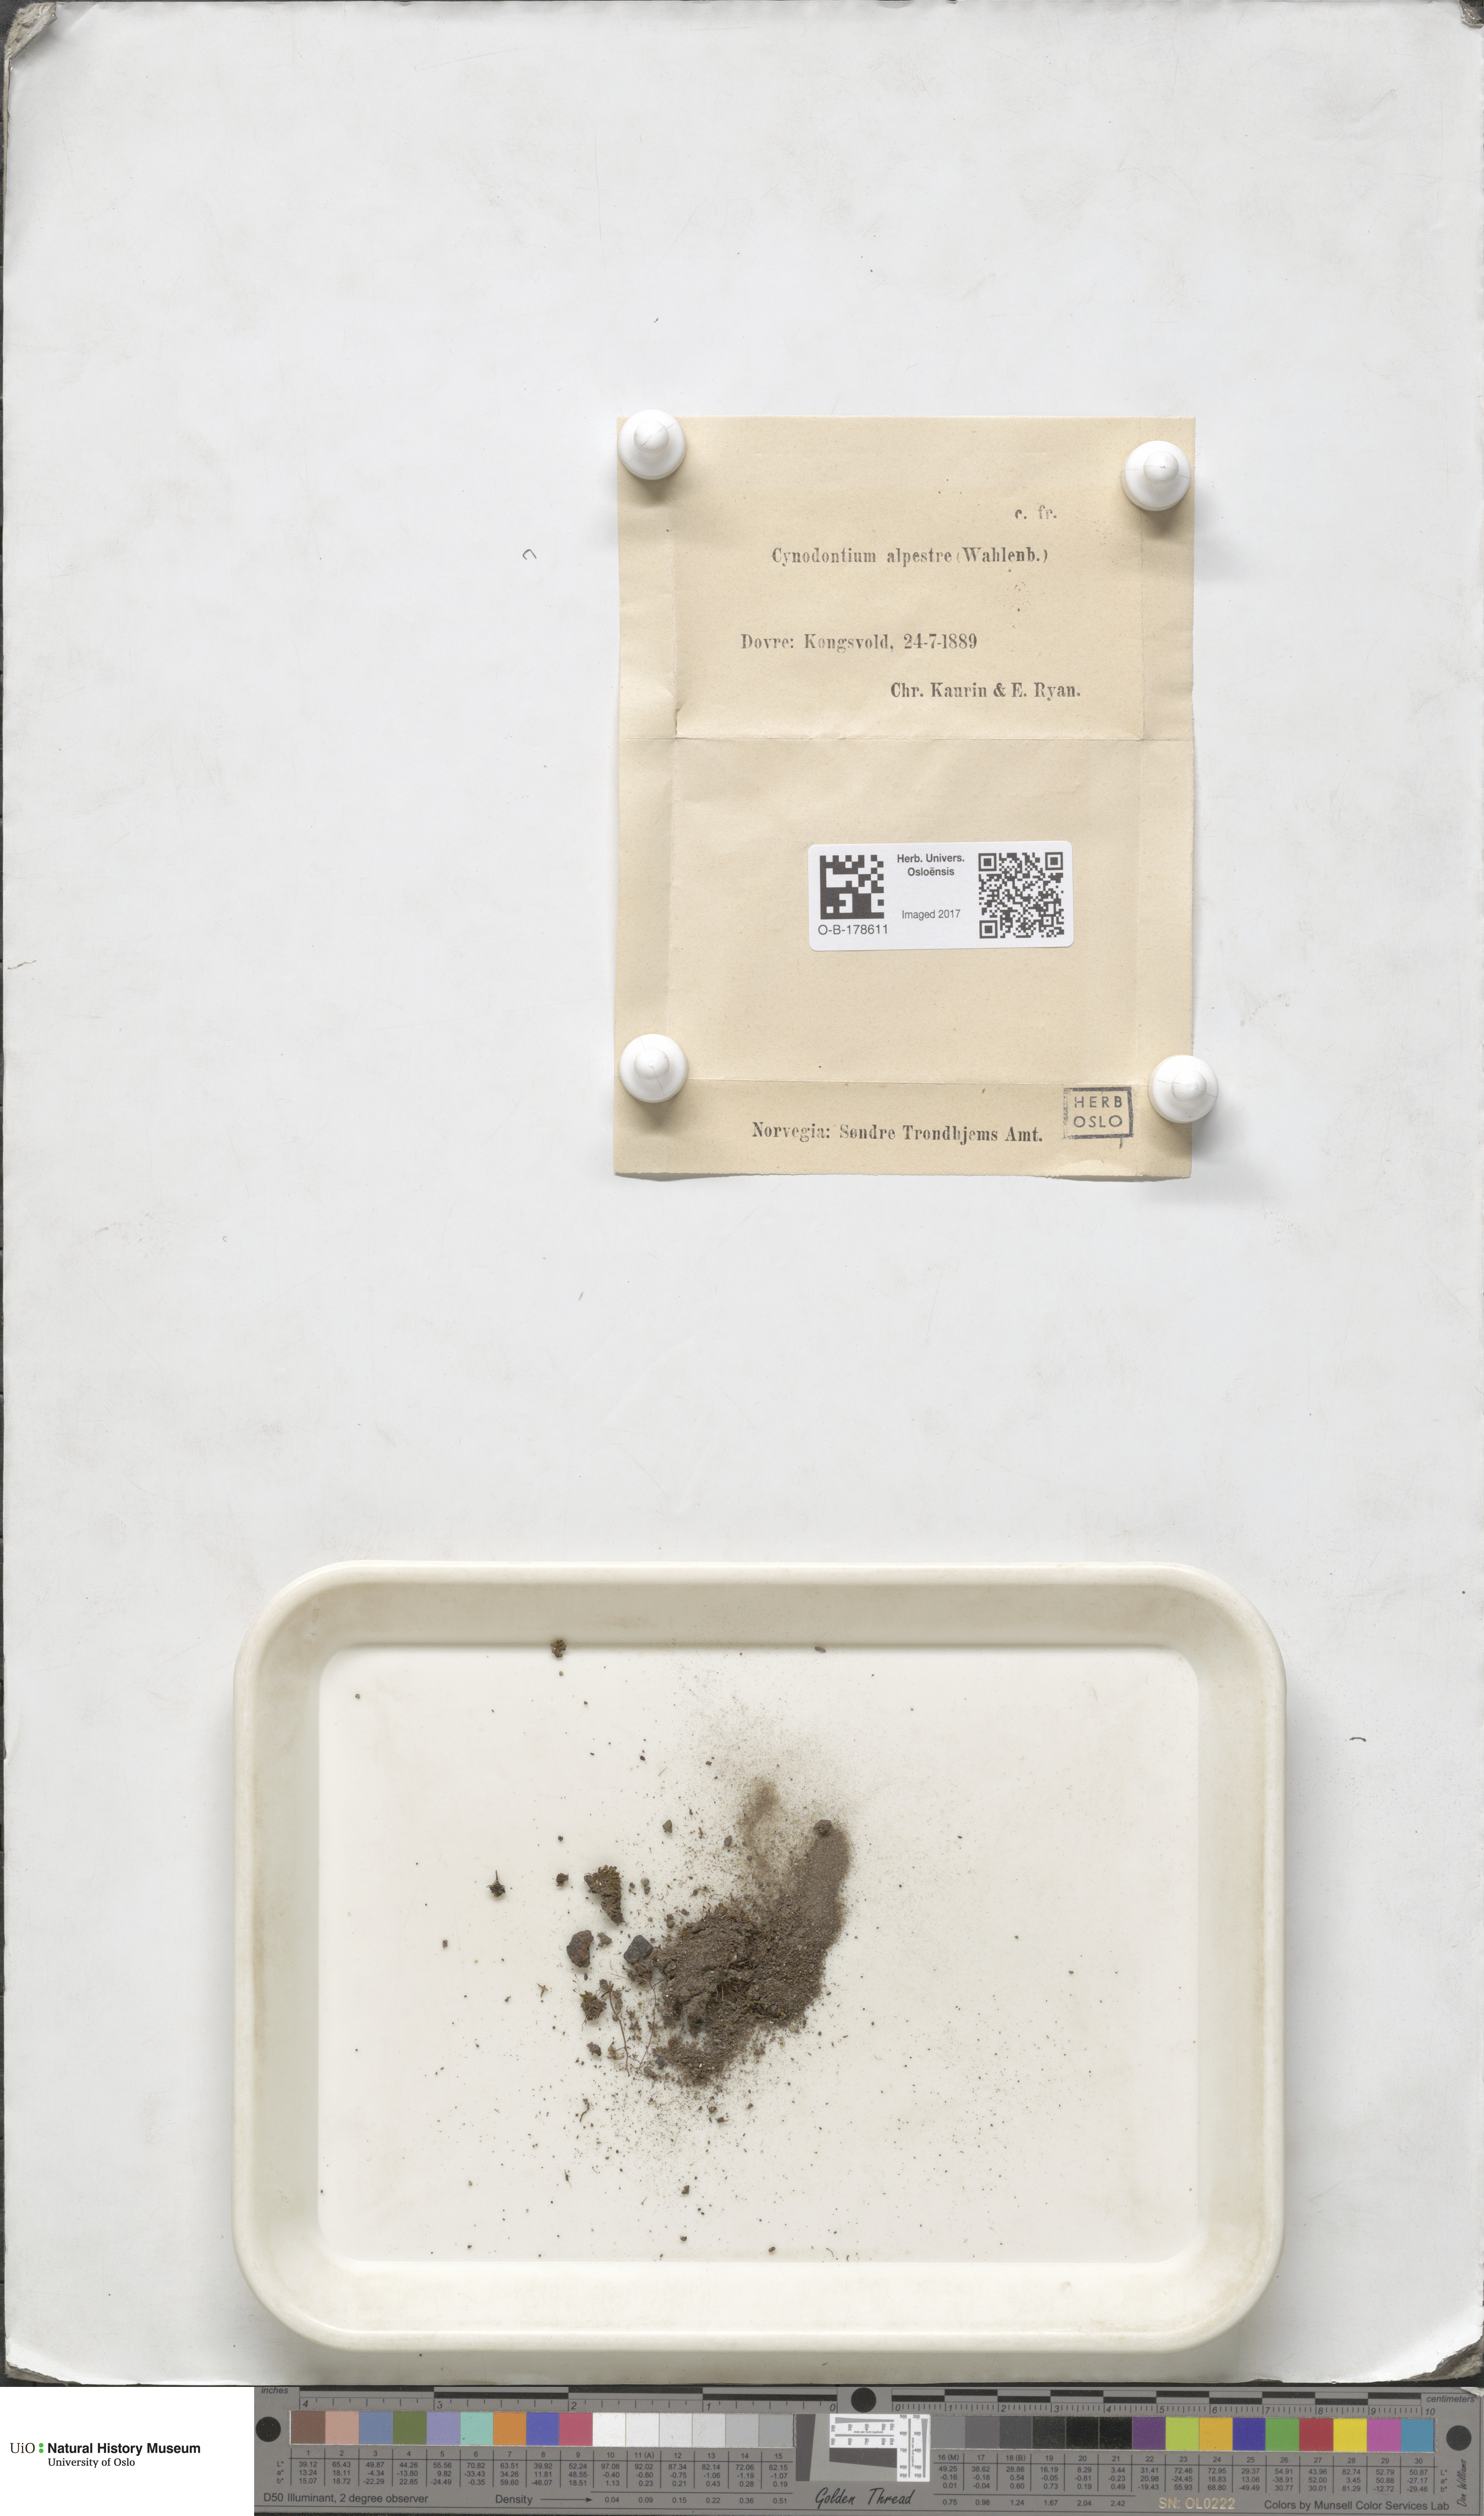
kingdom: Plantae
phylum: Bryophyta
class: Bryopsida
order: Dicranales
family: Rhabdoweisiaceae
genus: Cnestrum
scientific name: Cnestrum alpestre
